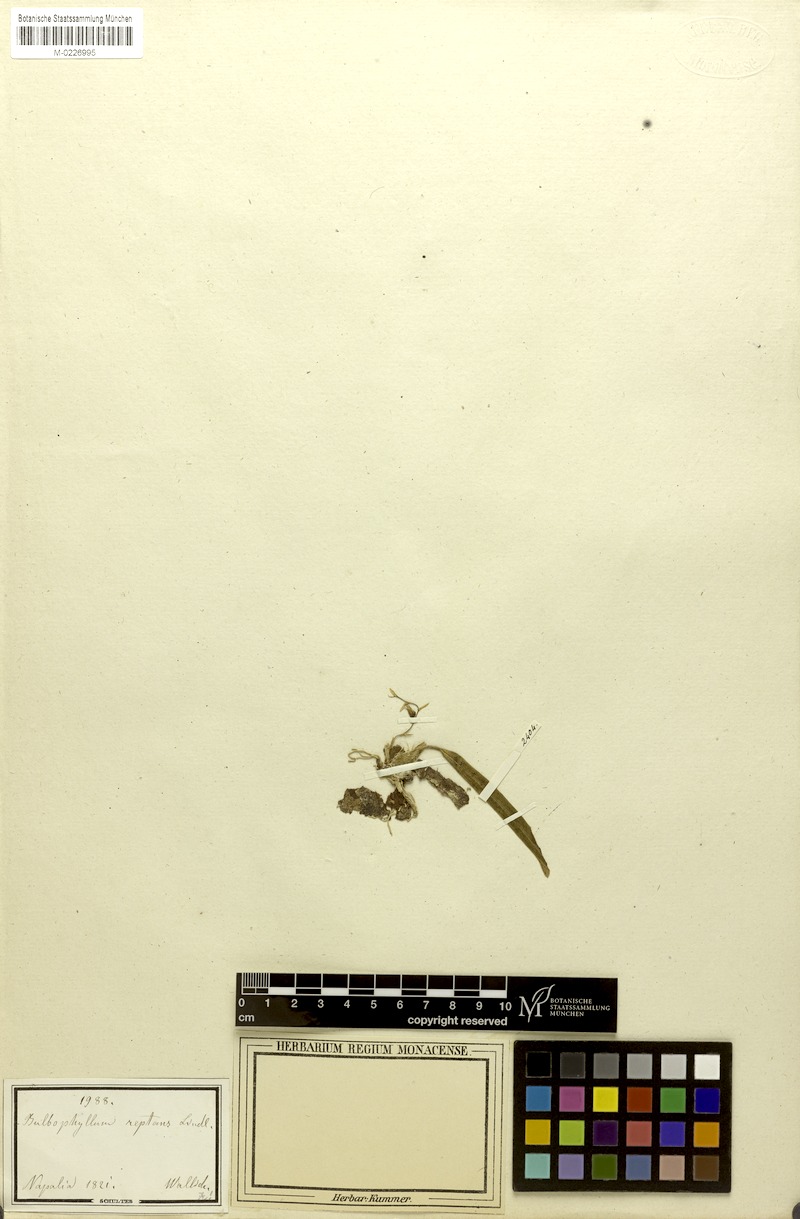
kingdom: Plantae
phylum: Tracheophyta
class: Liliopsida
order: Asparagales
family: Orchidaceae
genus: Bulbophyllum
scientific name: Bulbophyllum reptans
